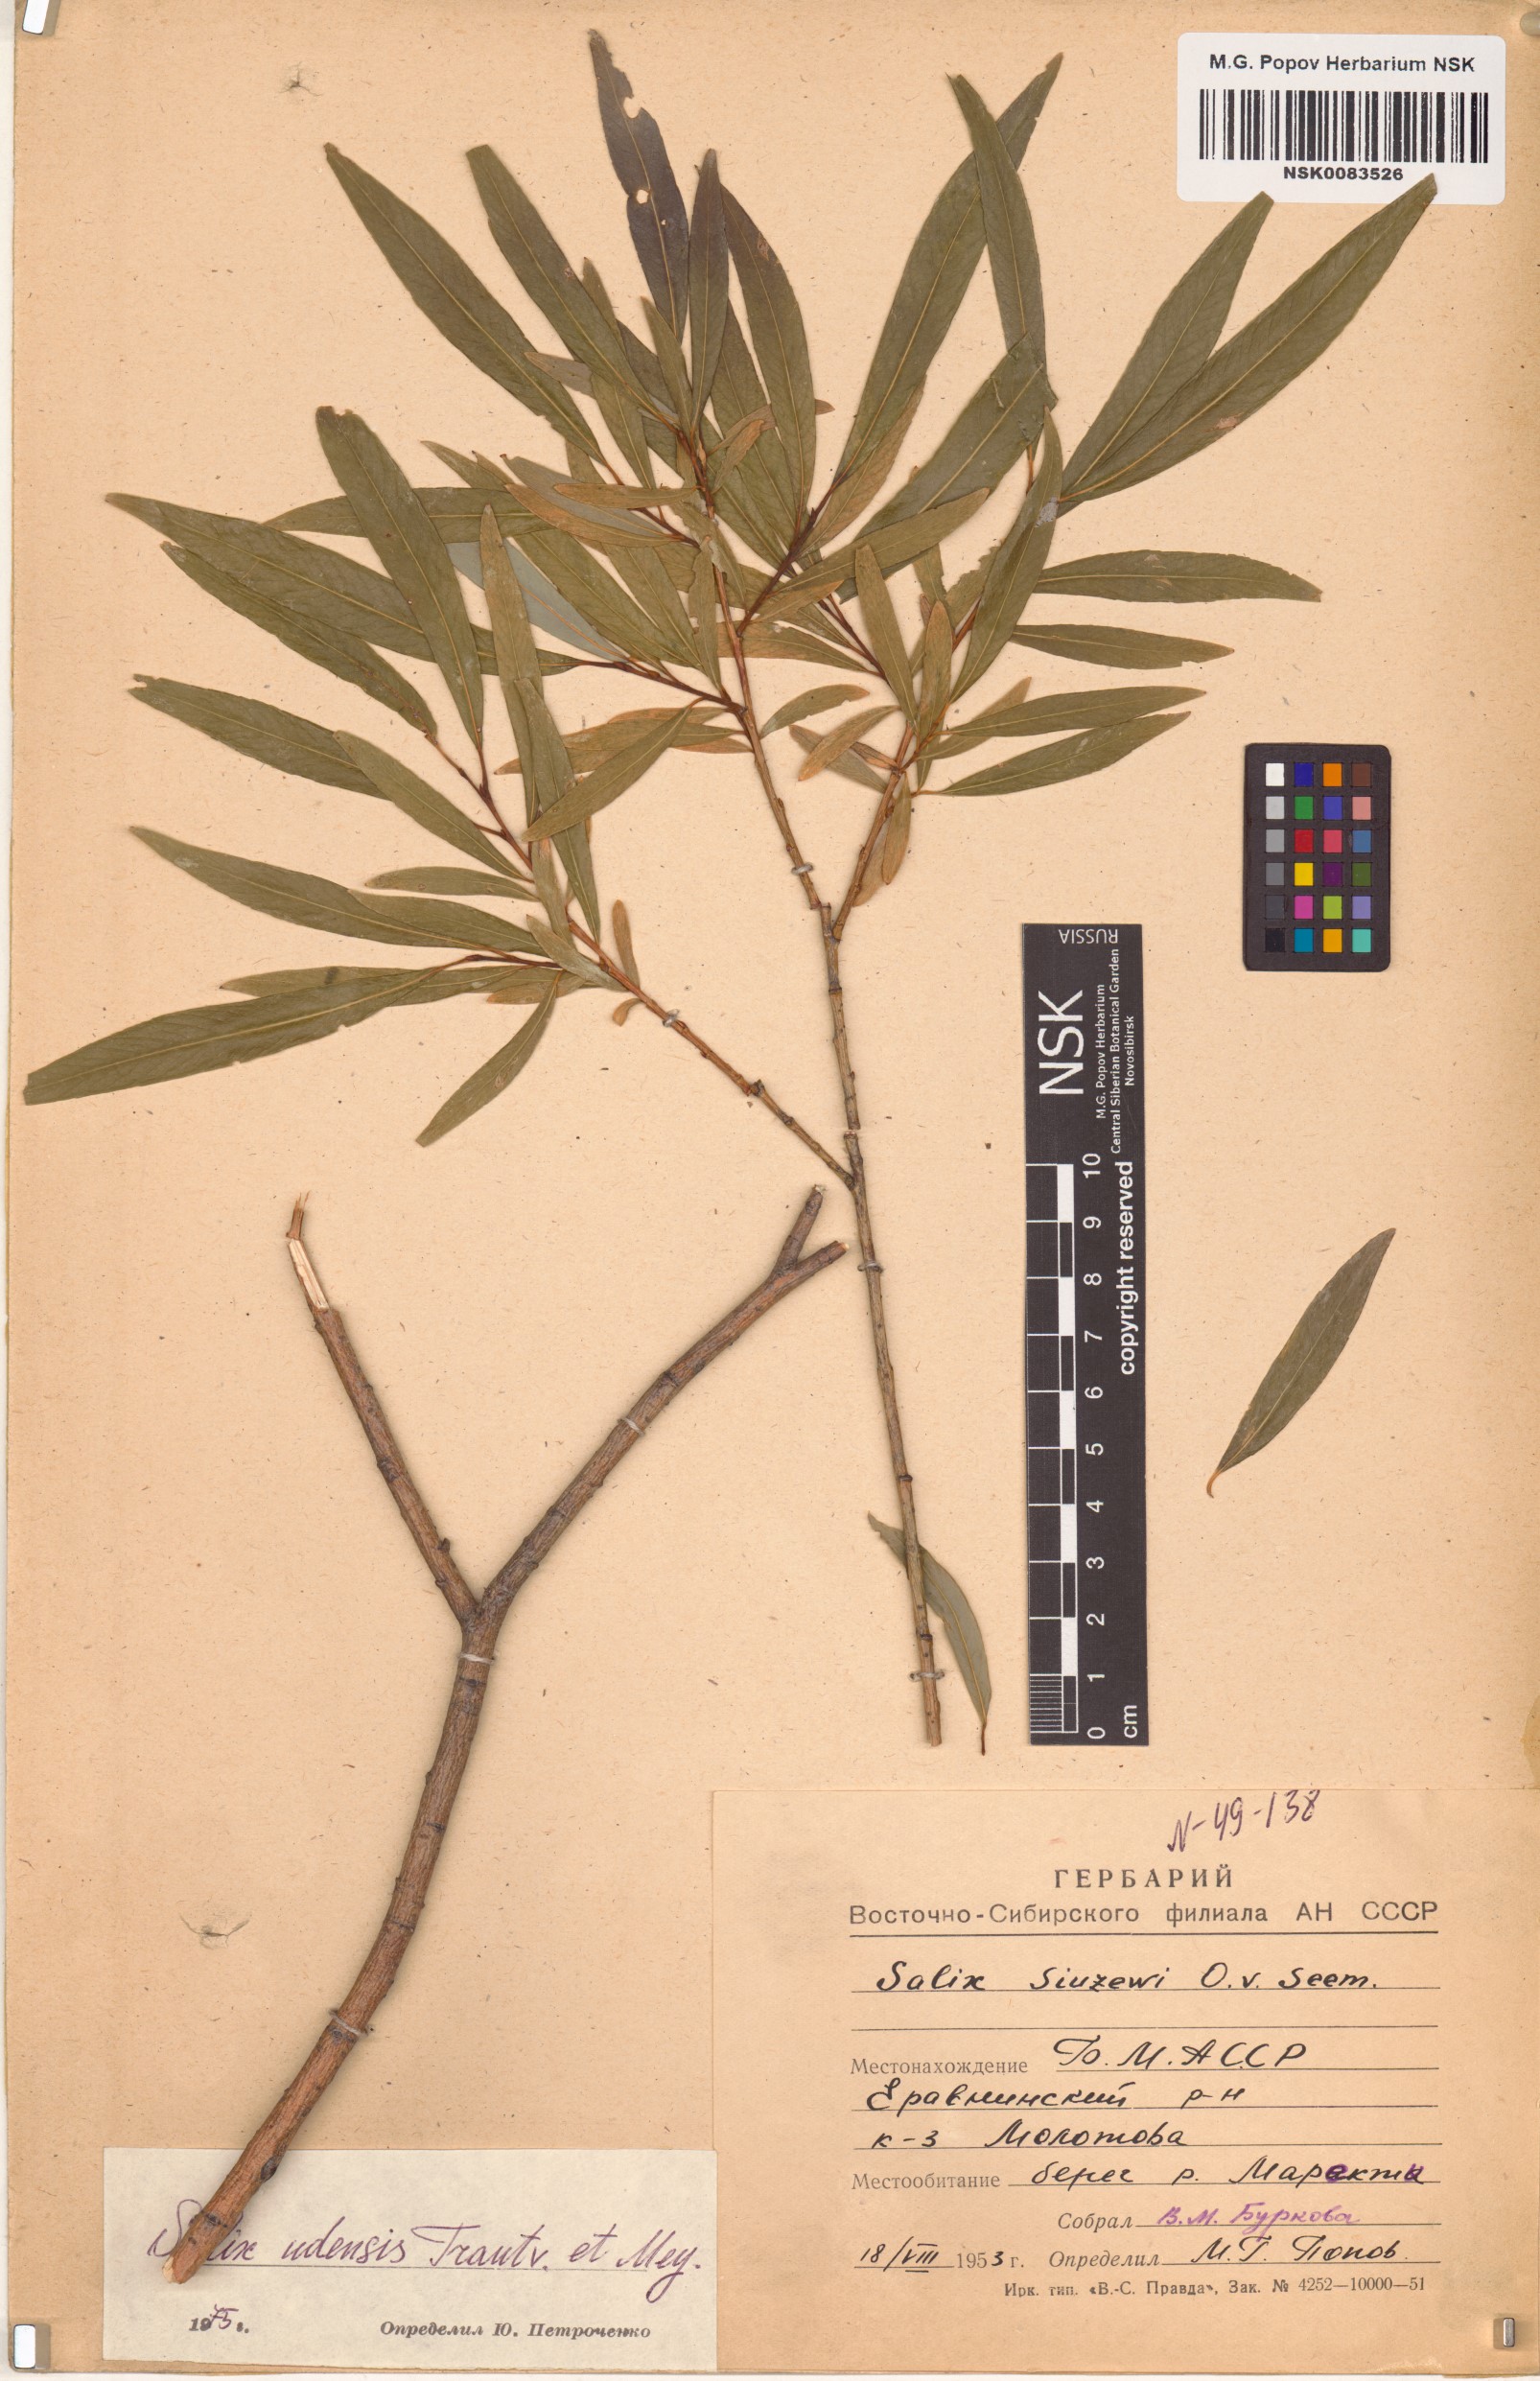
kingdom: Plantae
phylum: Tracheophyta
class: Magnoliopsida
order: Malpighiales
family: Salicaceae
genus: Salix
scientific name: Salix udensis
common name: Sachalin willow
